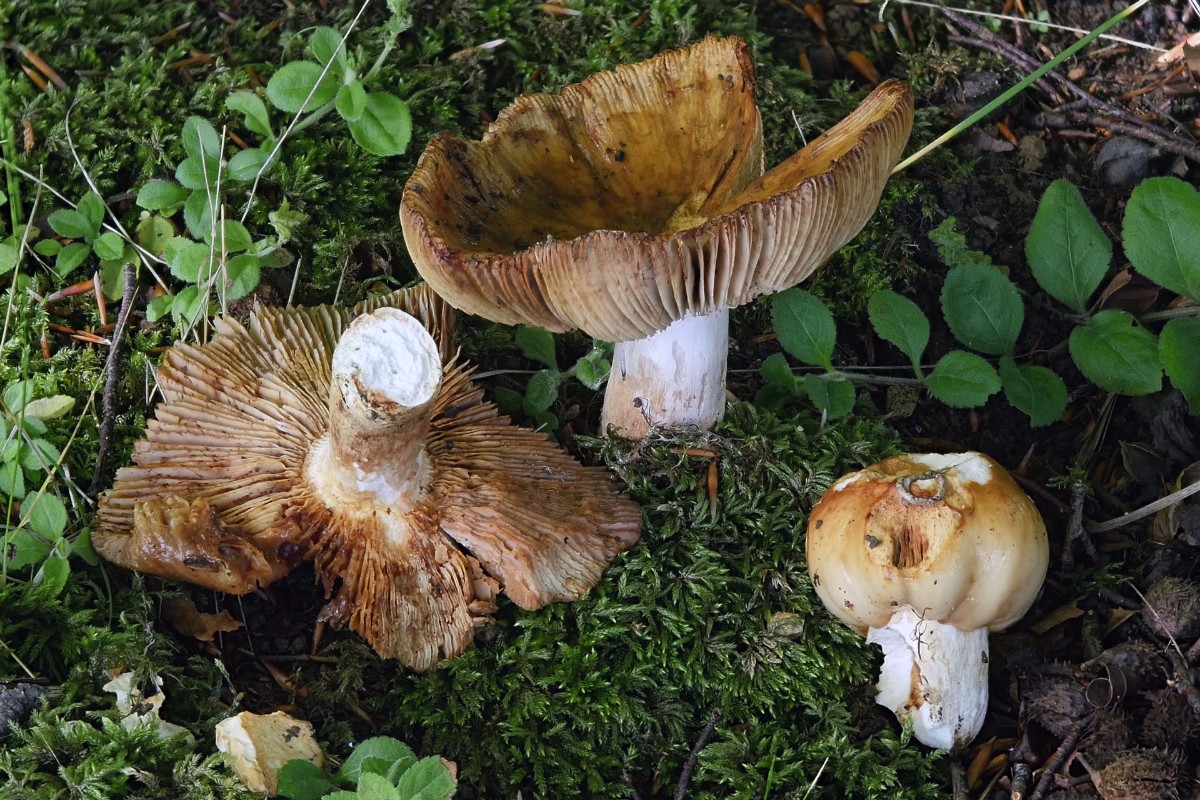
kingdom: Fungi
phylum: Basidiomycota
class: Agaricomycetes
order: Russulales
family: Russulaceae
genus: Russula
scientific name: Russula foetens
